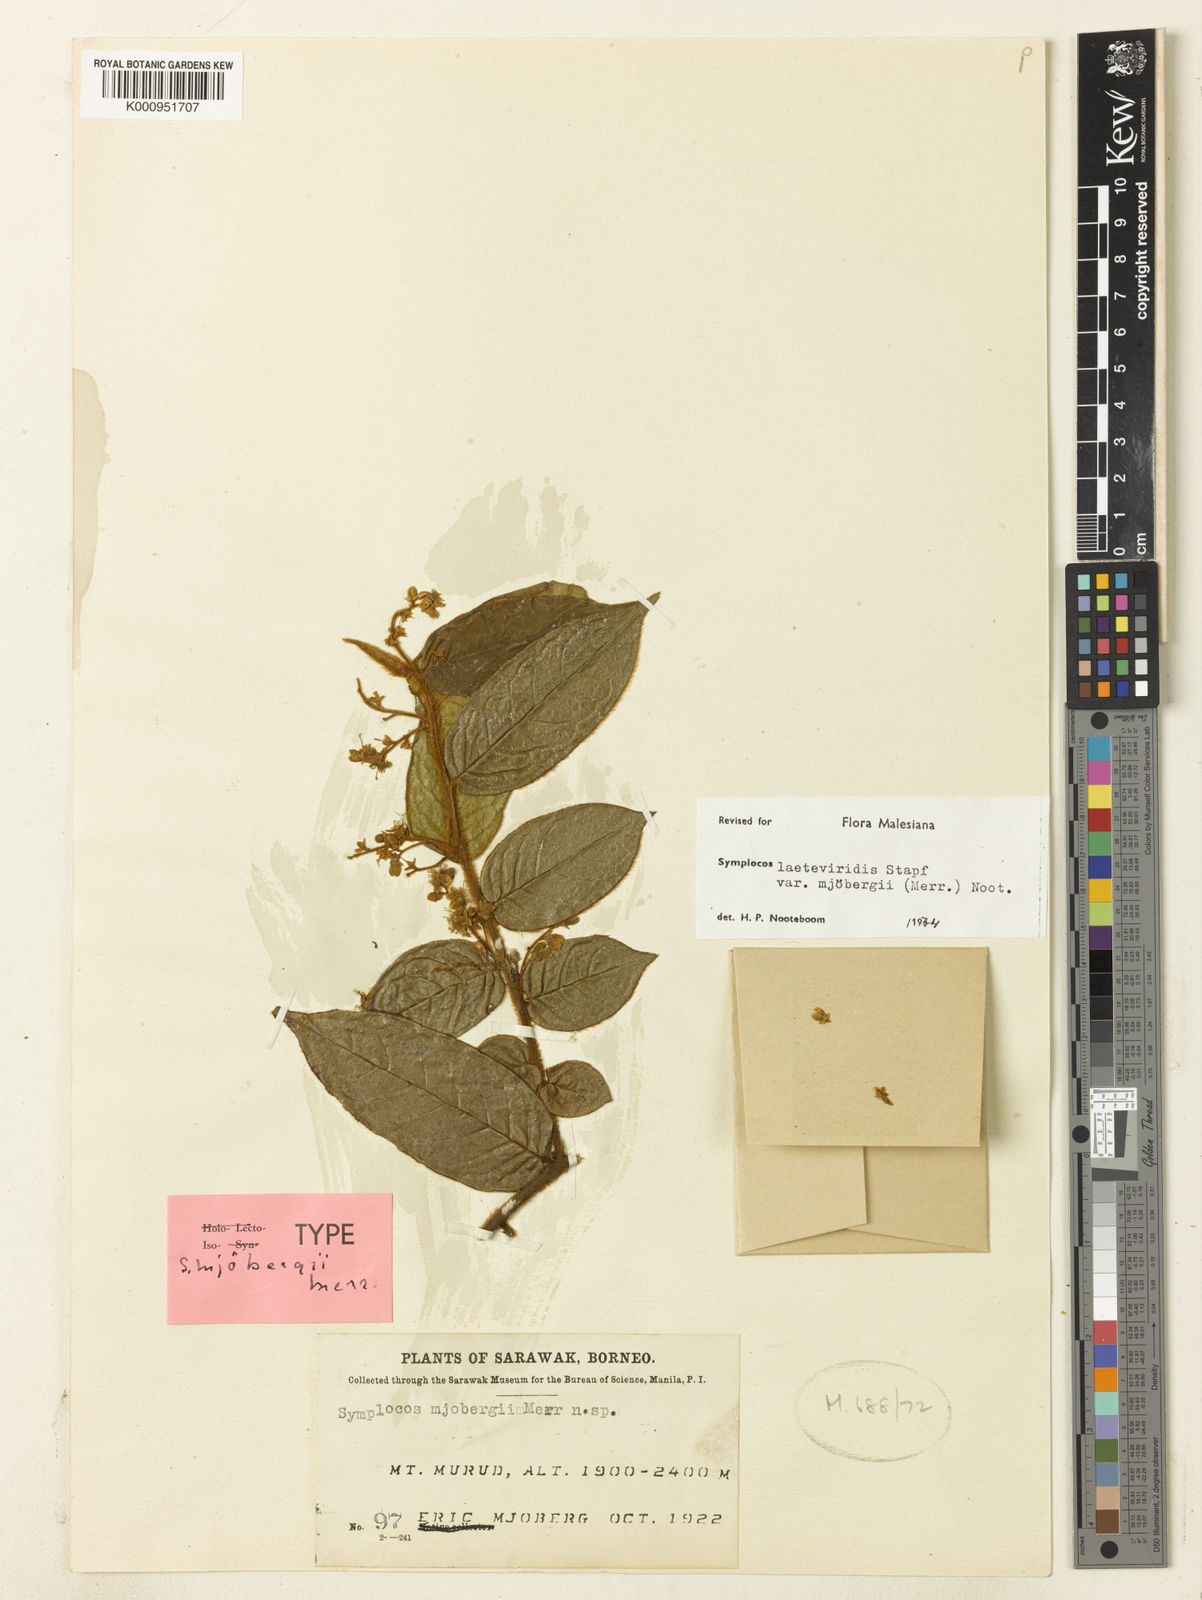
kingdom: Plantae
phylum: Tracheophyta
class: Magnoliopsida
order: Ericales
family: Symplocaceae
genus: Symplocos
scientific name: Symplocos
